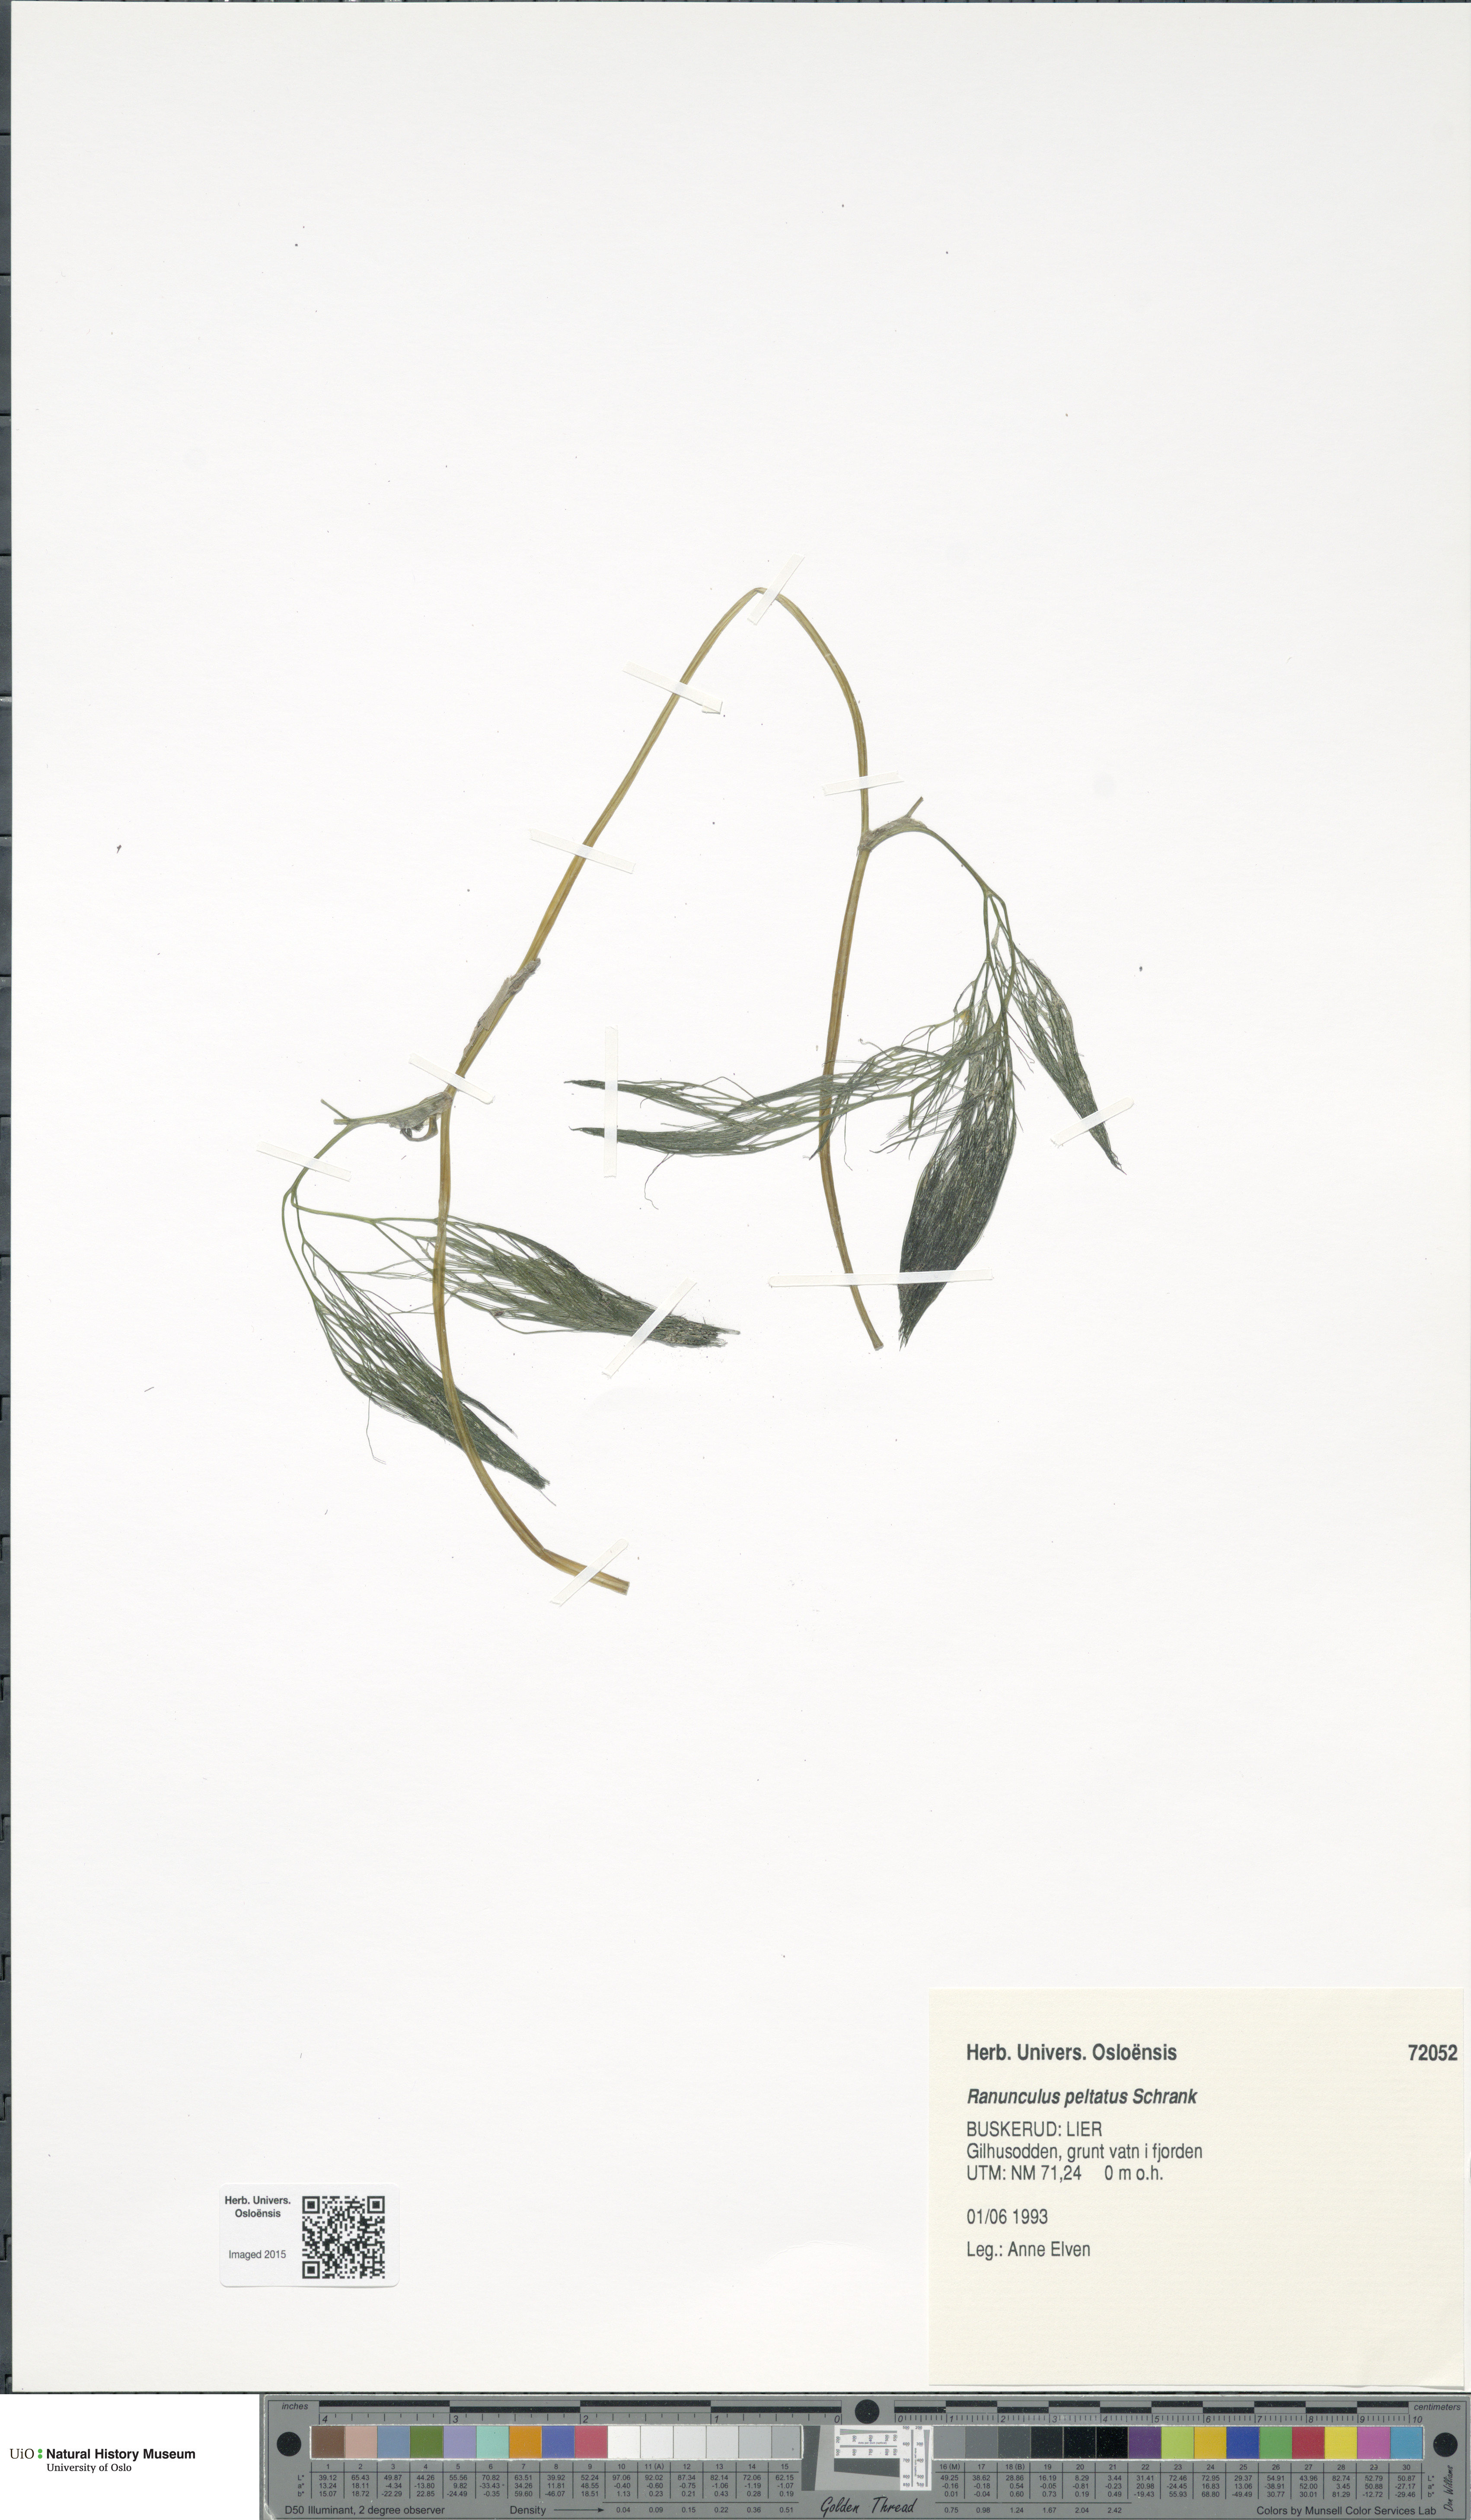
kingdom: Plantae
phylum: Tracheophyta
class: Magnoliopsida
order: Ranunculales
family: Ranunculaceae
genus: Ranunculus
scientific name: Ranunculus peltatus
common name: Pond water-crowfoot
